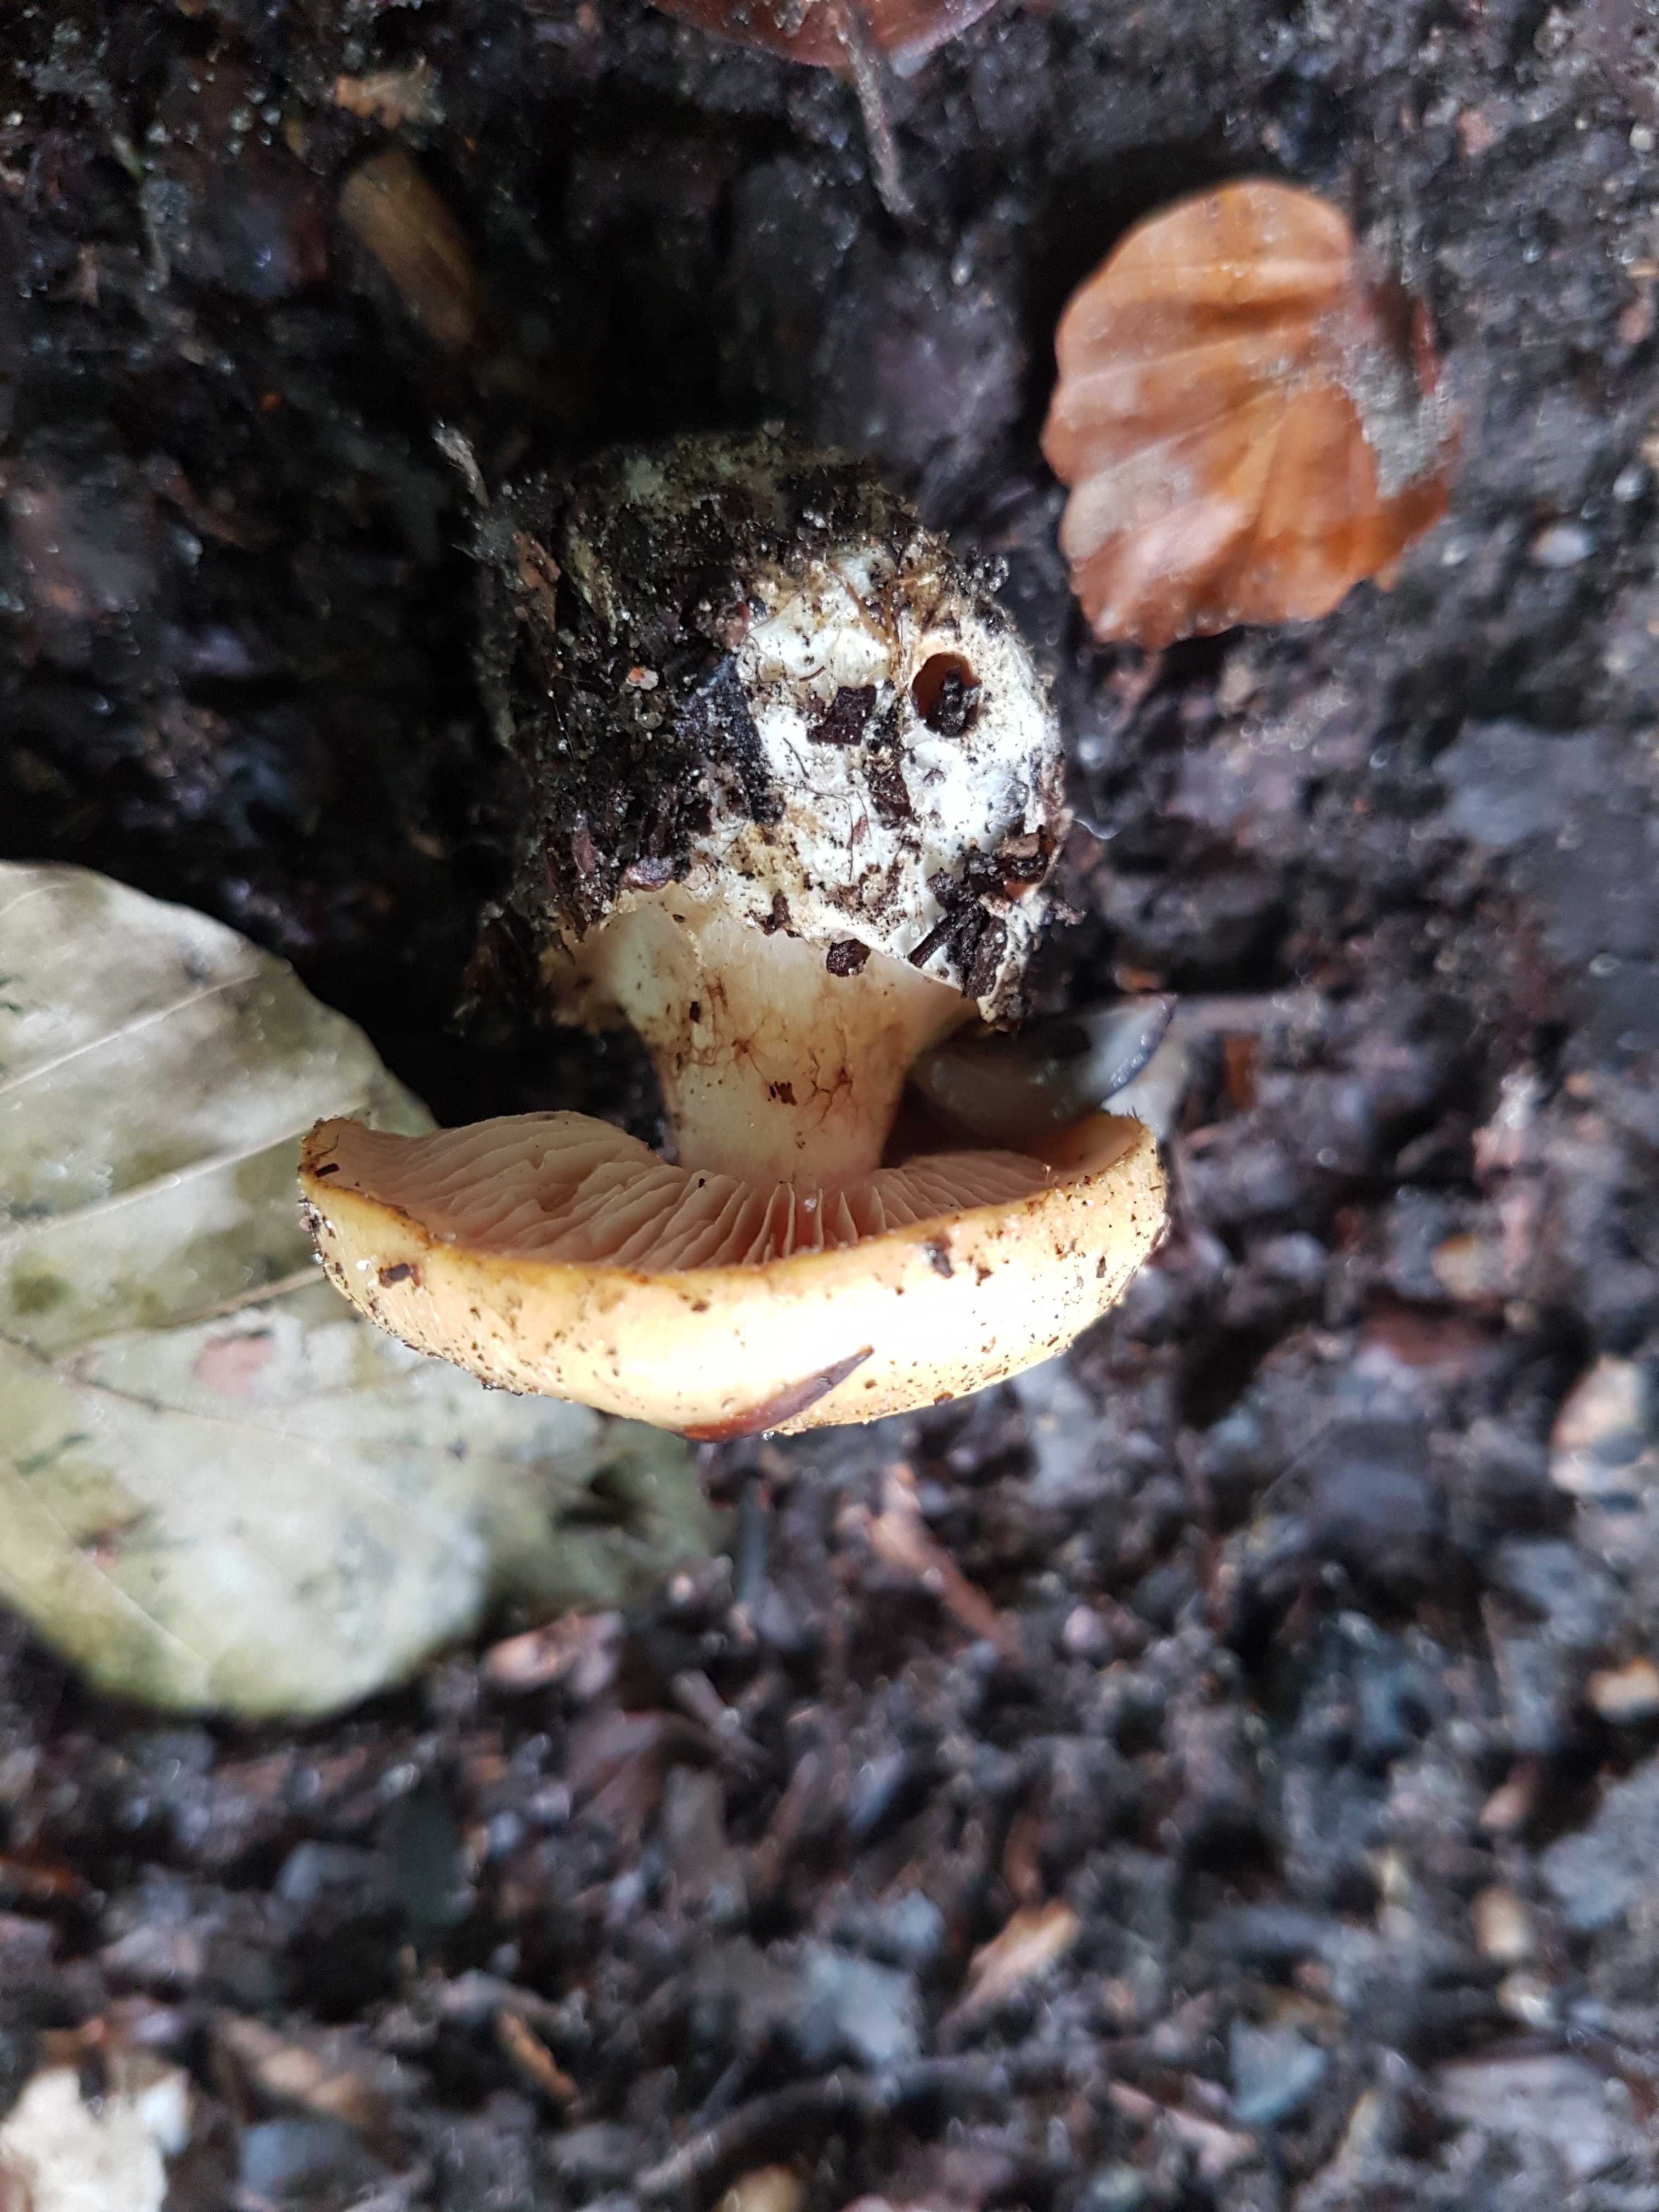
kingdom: Fungi
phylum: Basidiomycota
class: Agaricomycetes
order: Agaricales
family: Cortinariaceae
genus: Phlegmacium
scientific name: Phlegmacium xantho-ochraceum
